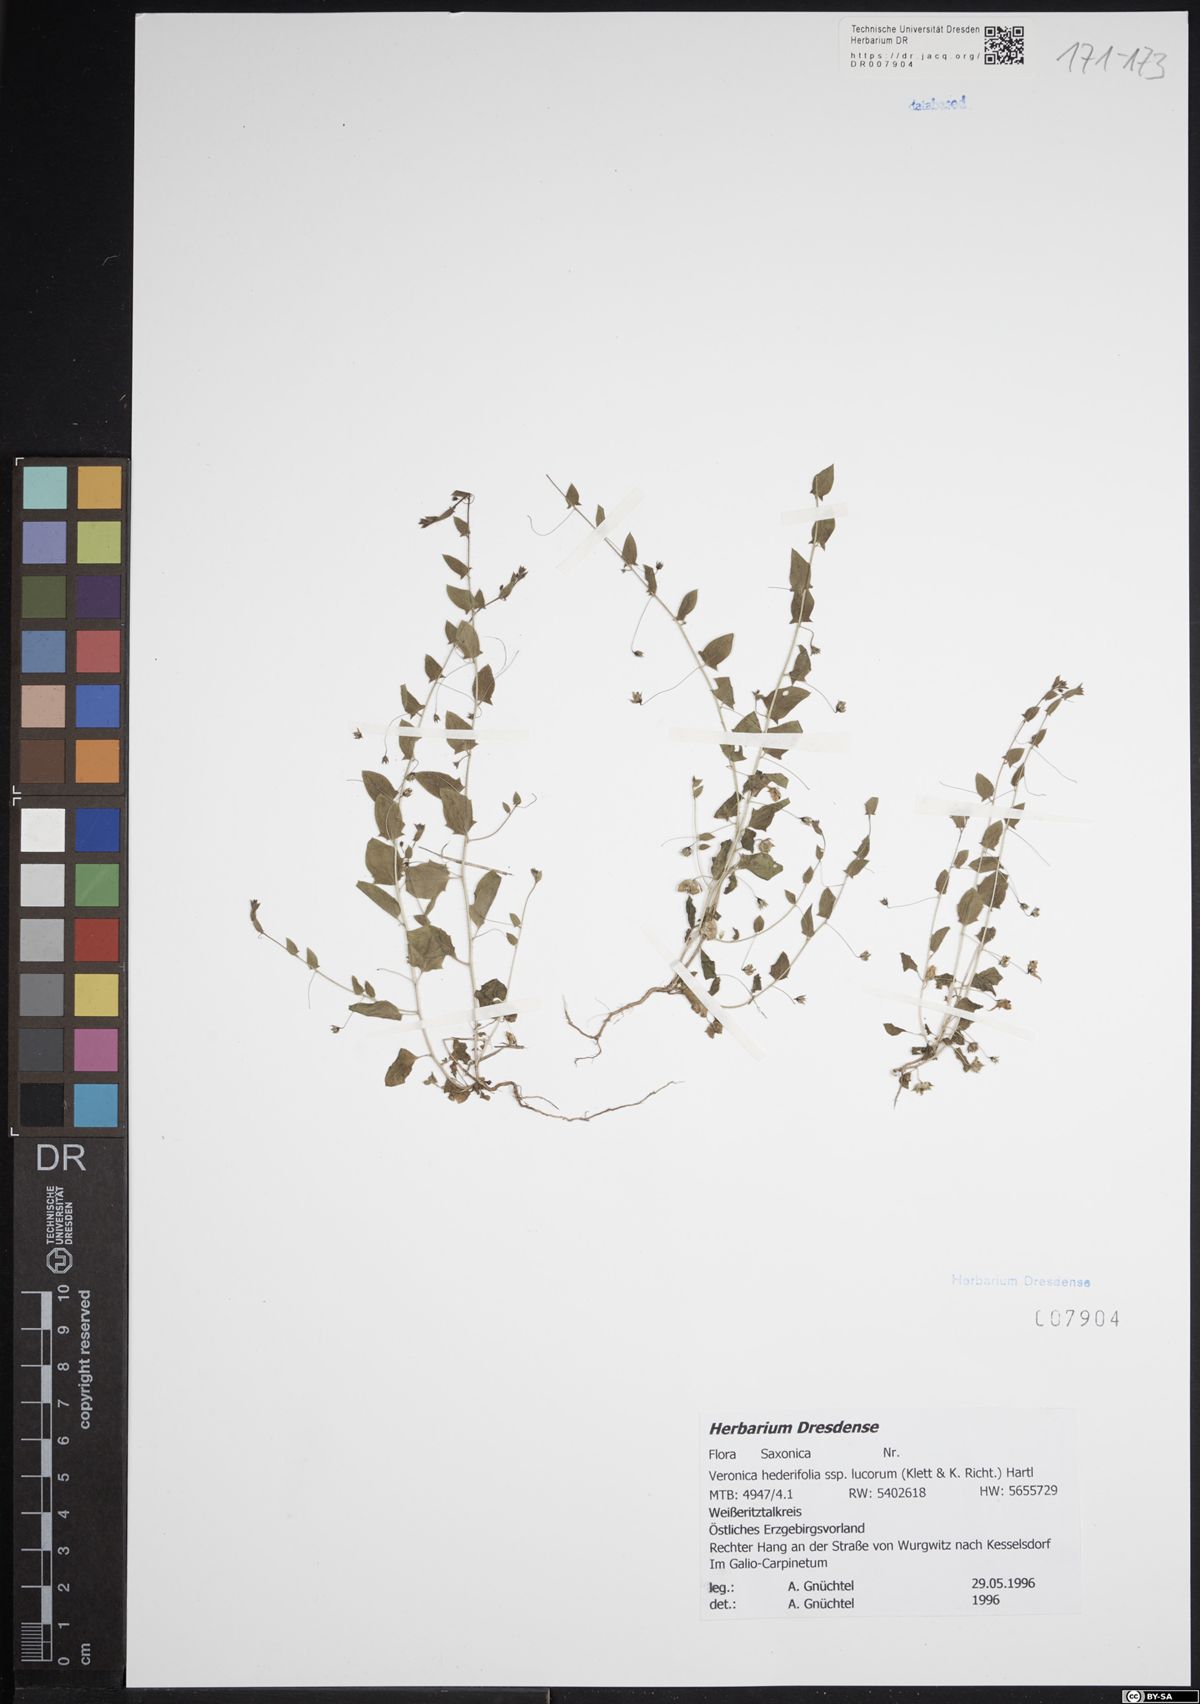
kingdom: Plantae
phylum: Tracheophyta
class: Magnoliopsida
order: Lamiales
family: Plantaginaceae
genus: Veronica
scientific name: Veronica hederifolia
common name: Ivy-leaved speedwell
